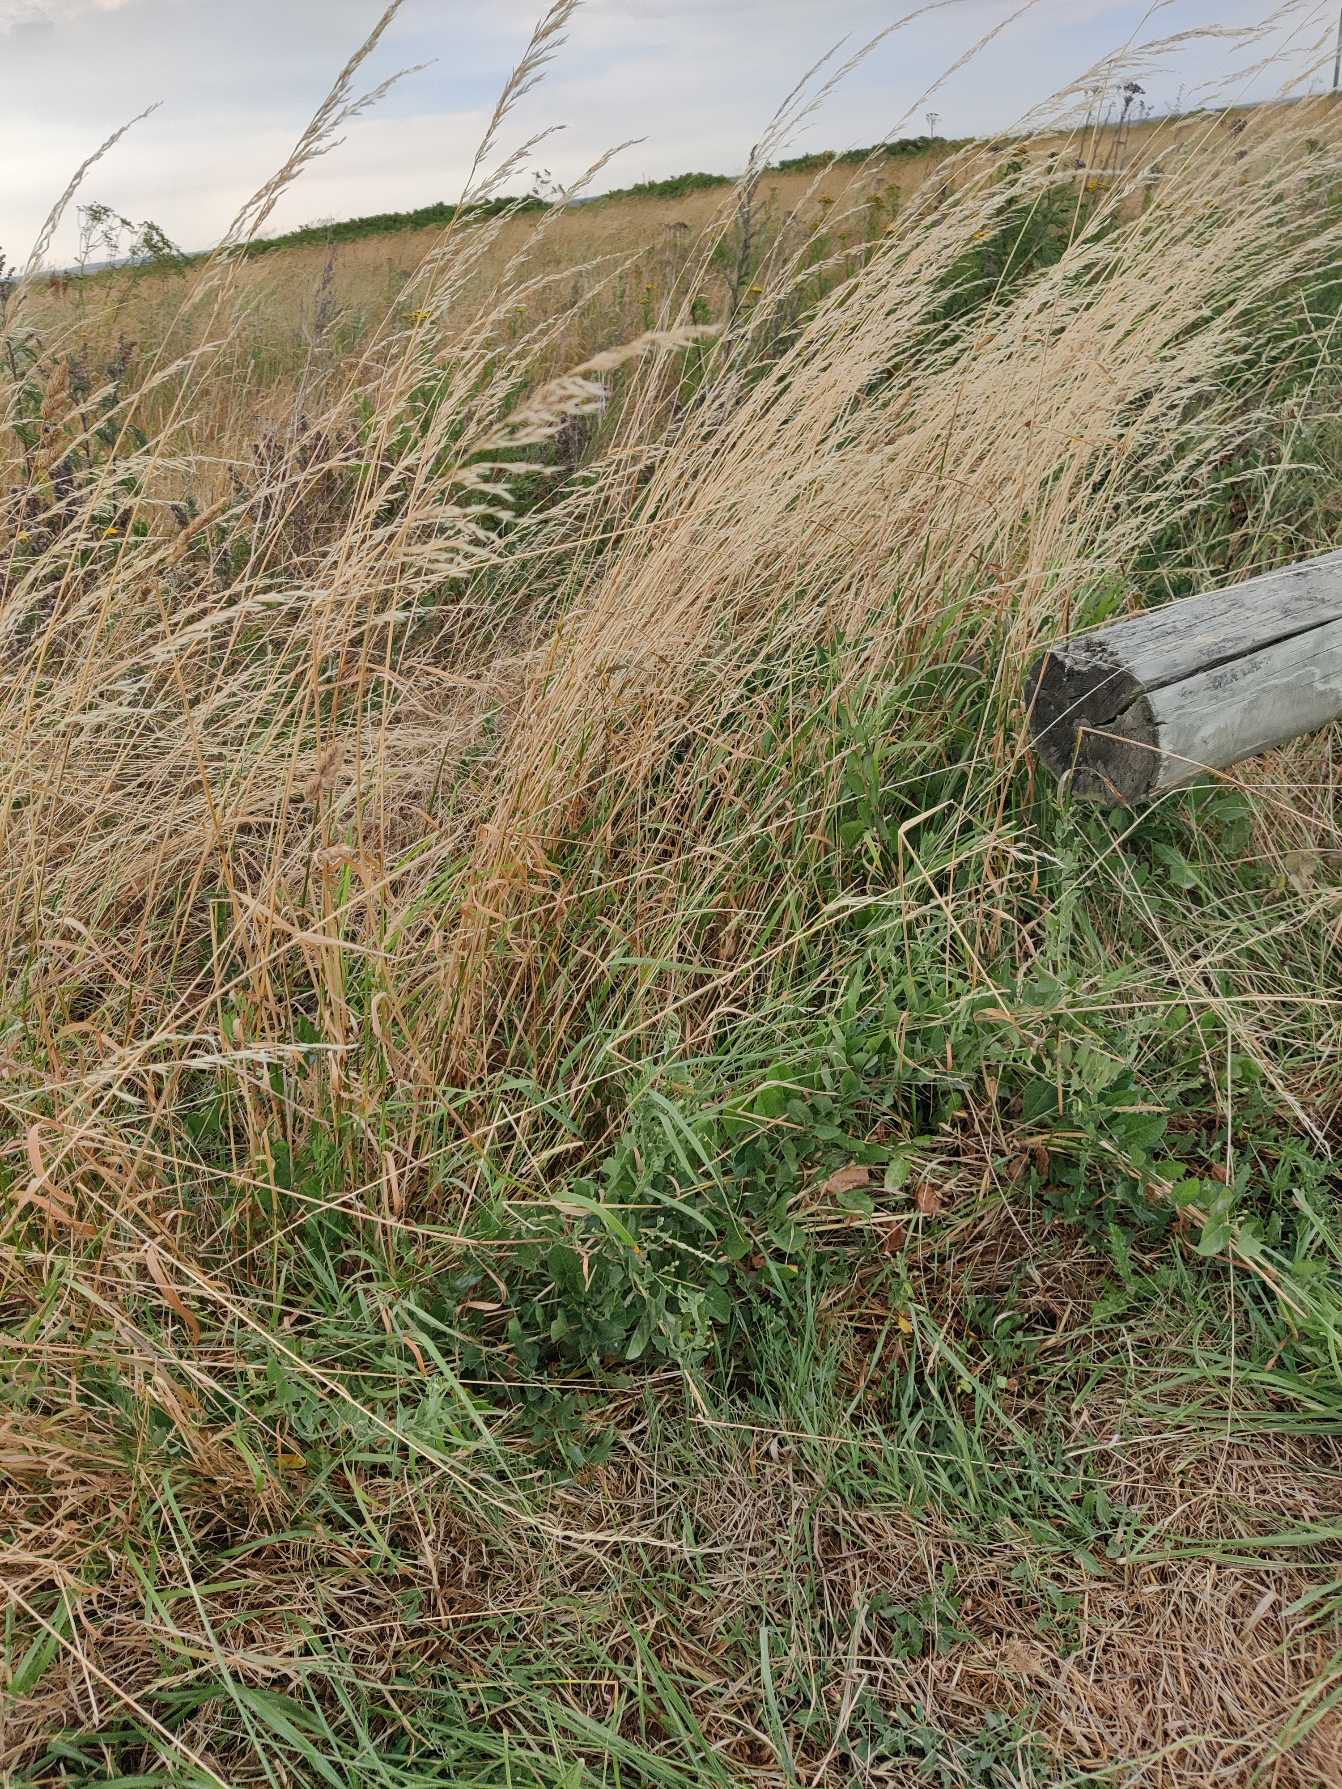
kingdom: Plantae
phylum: Tracheophyta
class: Liliopsida
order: Poales
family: Poaceae
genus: Arrhenatherum
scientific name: Arrhenatherum elatius
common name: Draphavre
